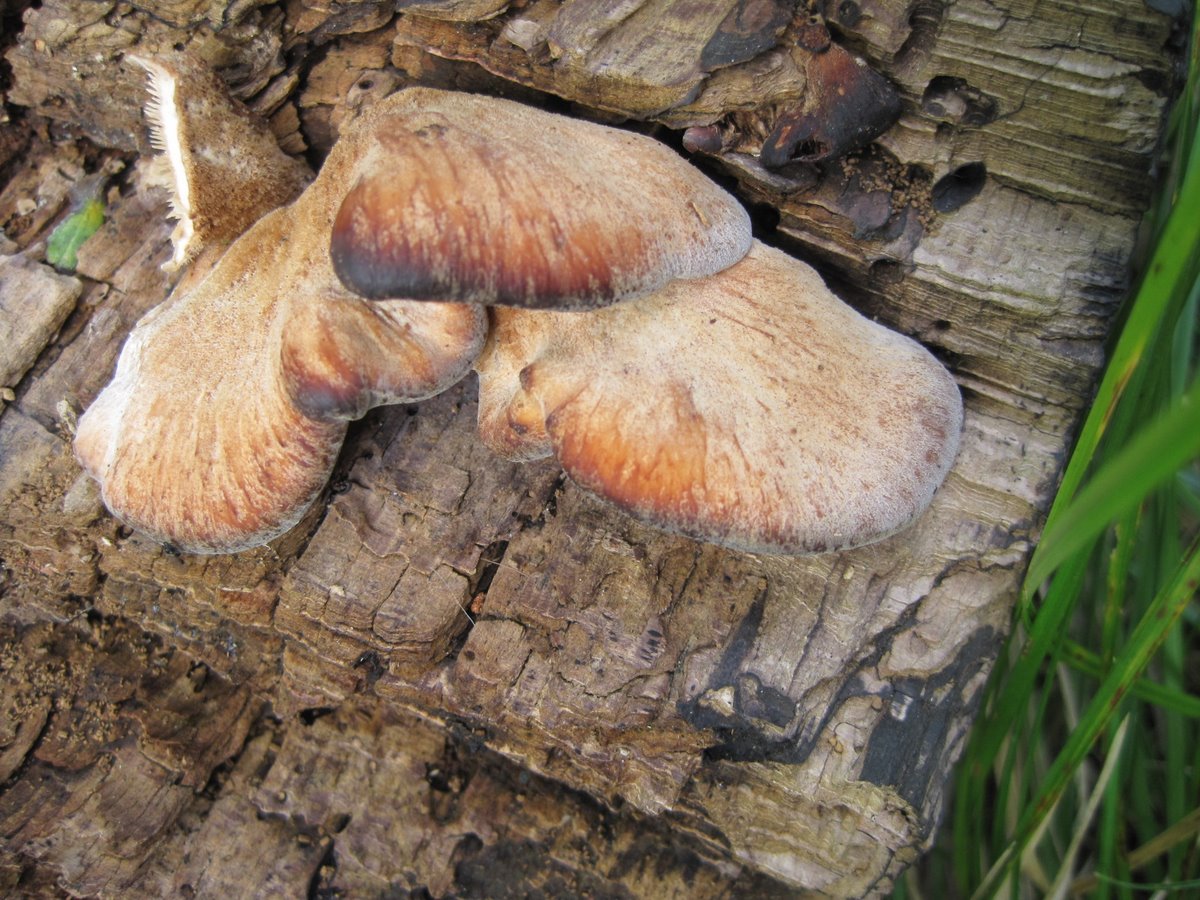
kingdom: Fungi
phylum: Basidiomycota
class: Agaricomycetes
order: Russulales
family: Auriscalpiaceae
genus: Lentinellus
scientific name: Lentinellus ursinus
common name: børstehåret savbladhat
